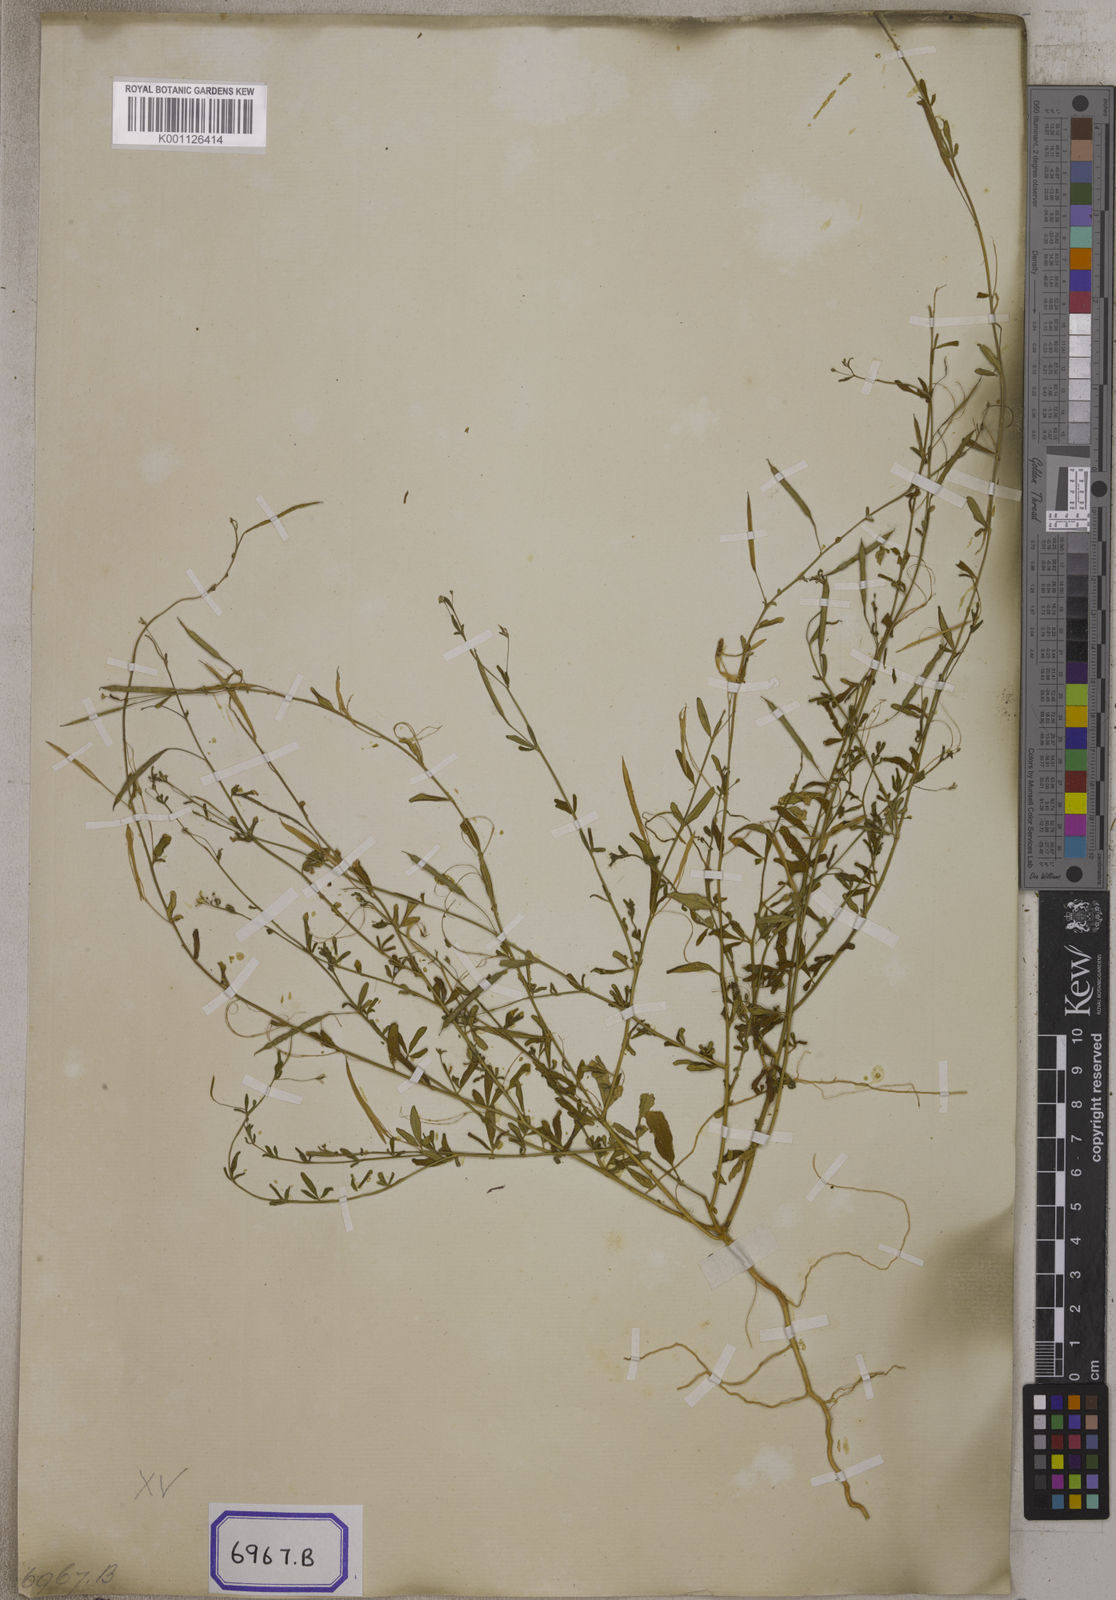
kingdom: Plantae
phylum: Tracheophyta
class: Magnoliopsida
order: Brassicales
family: Cleomaceae
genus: Cleome
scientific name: Cleome
